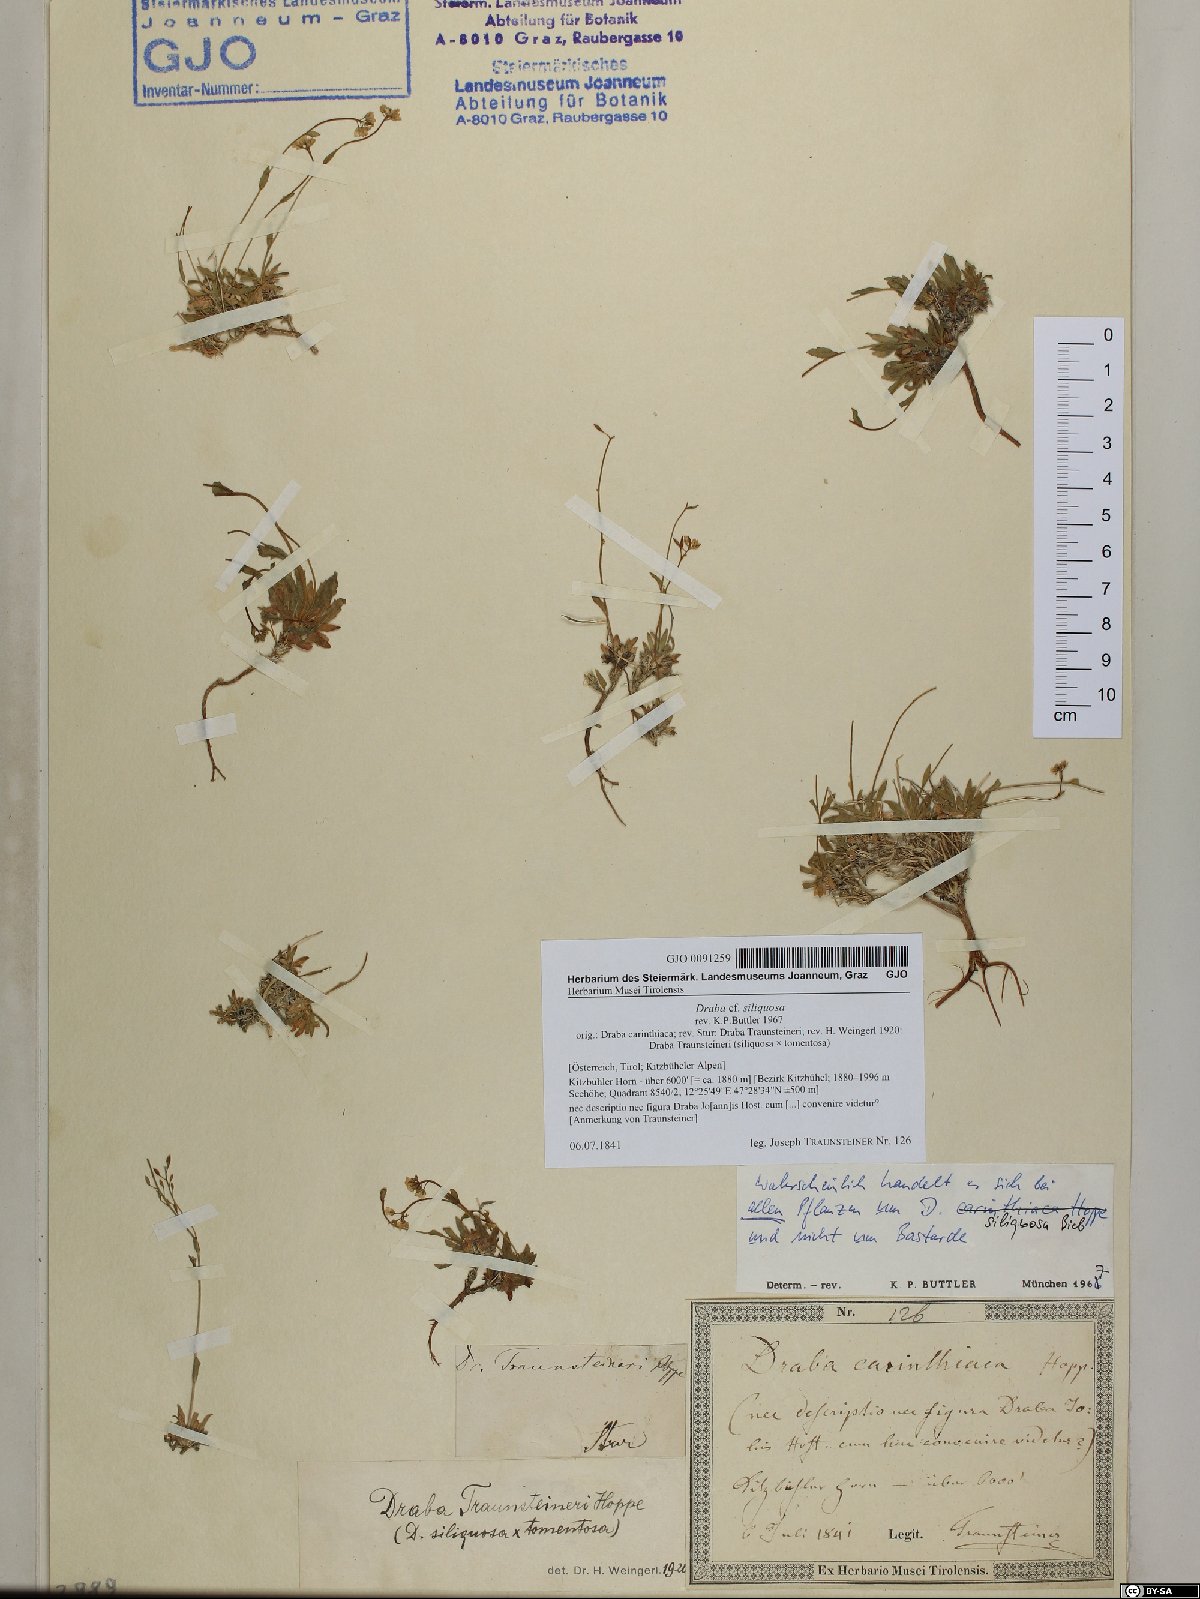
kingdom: Plantae
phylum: Tracheophyta
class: Magnoliopsida
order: Brassicales
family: Brassicaceae
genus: Draba
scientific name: Draba siliquosa
